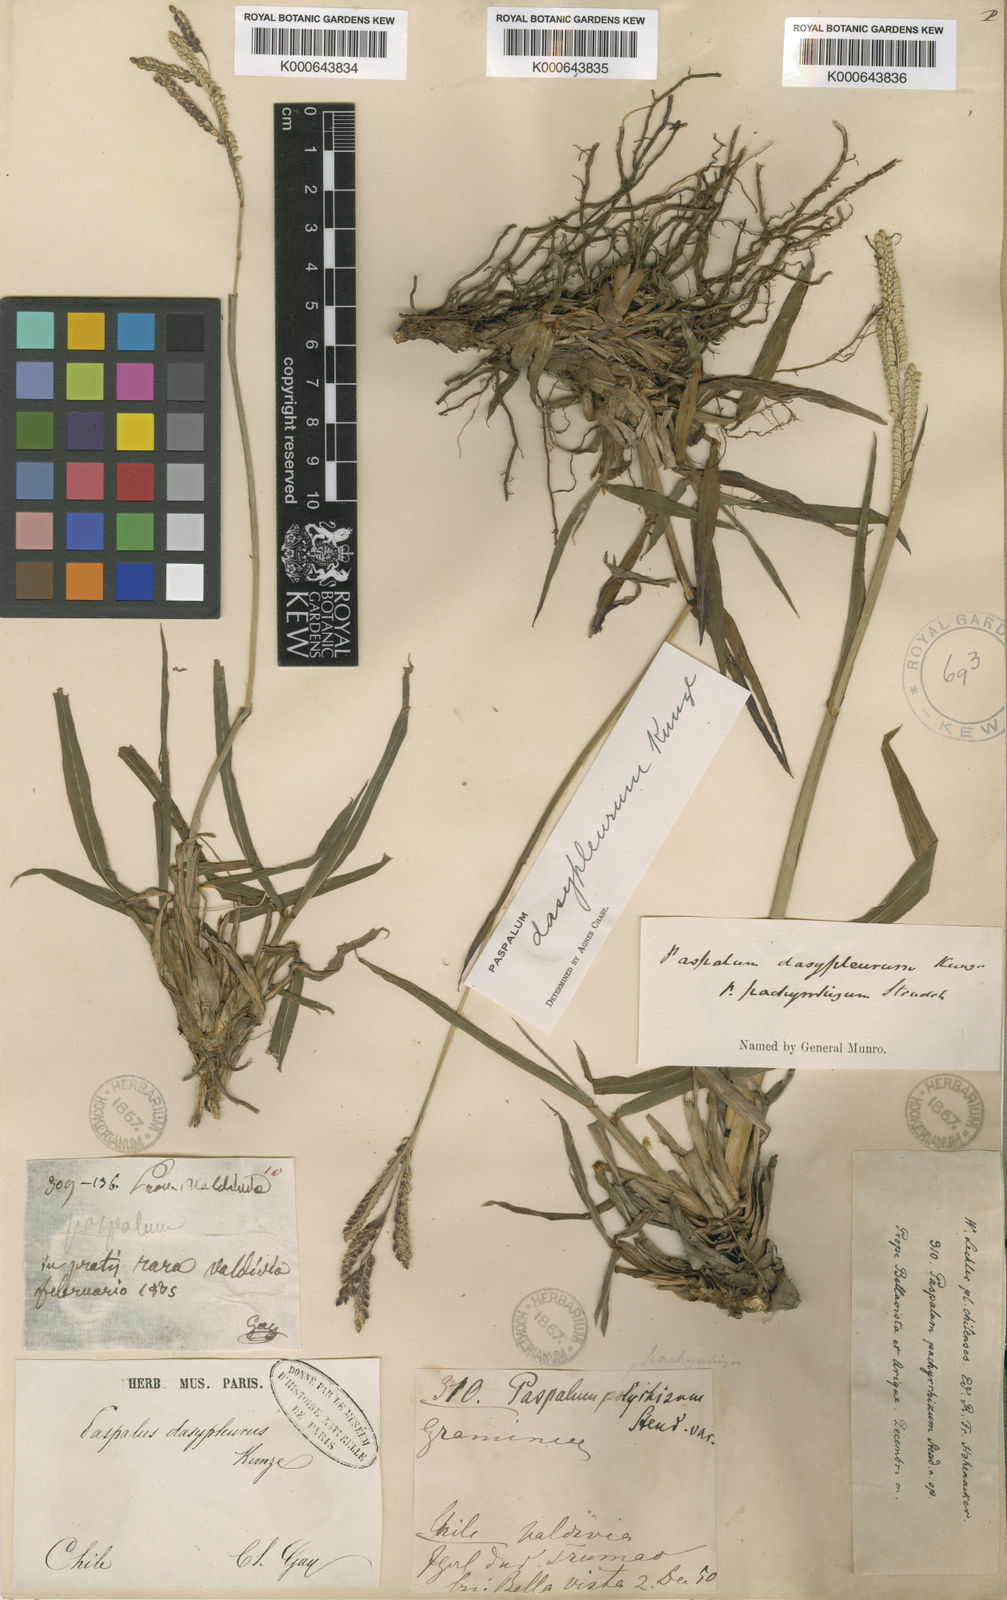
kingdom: Plantae
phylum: Tracheophyta
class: Liliopsida
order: Poales
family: Poaceae
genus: Paspalum
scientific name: Paspalum dasypleurum
